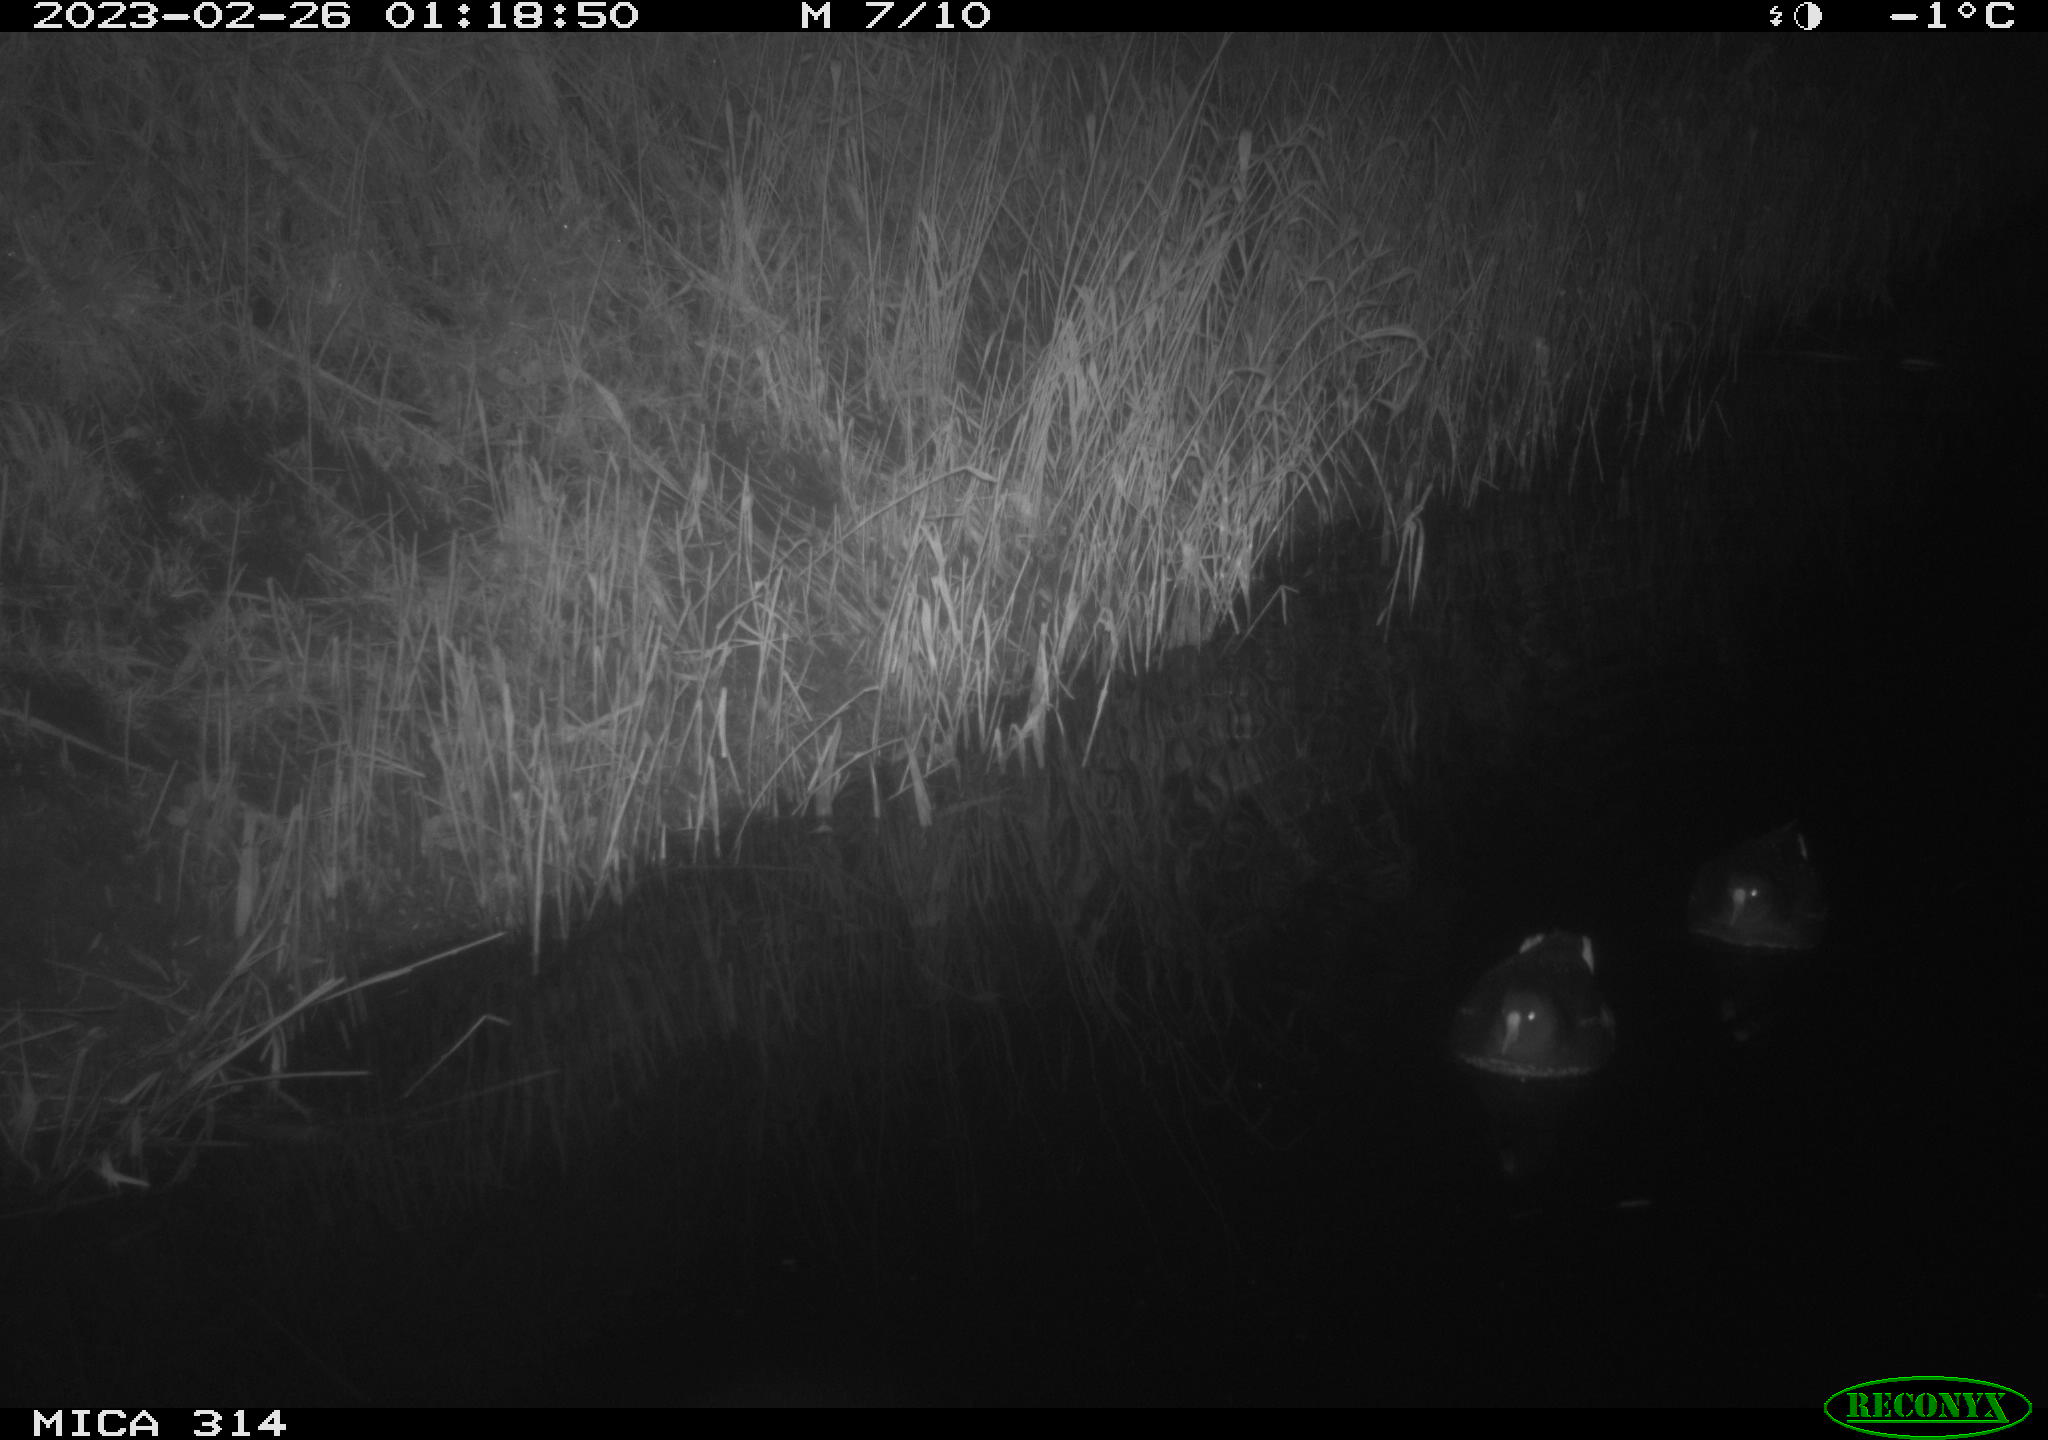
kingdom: Animalia
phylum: Chordata
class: Aves
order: Anseriformes
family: Anatidae
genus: Anas
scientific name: Anas
